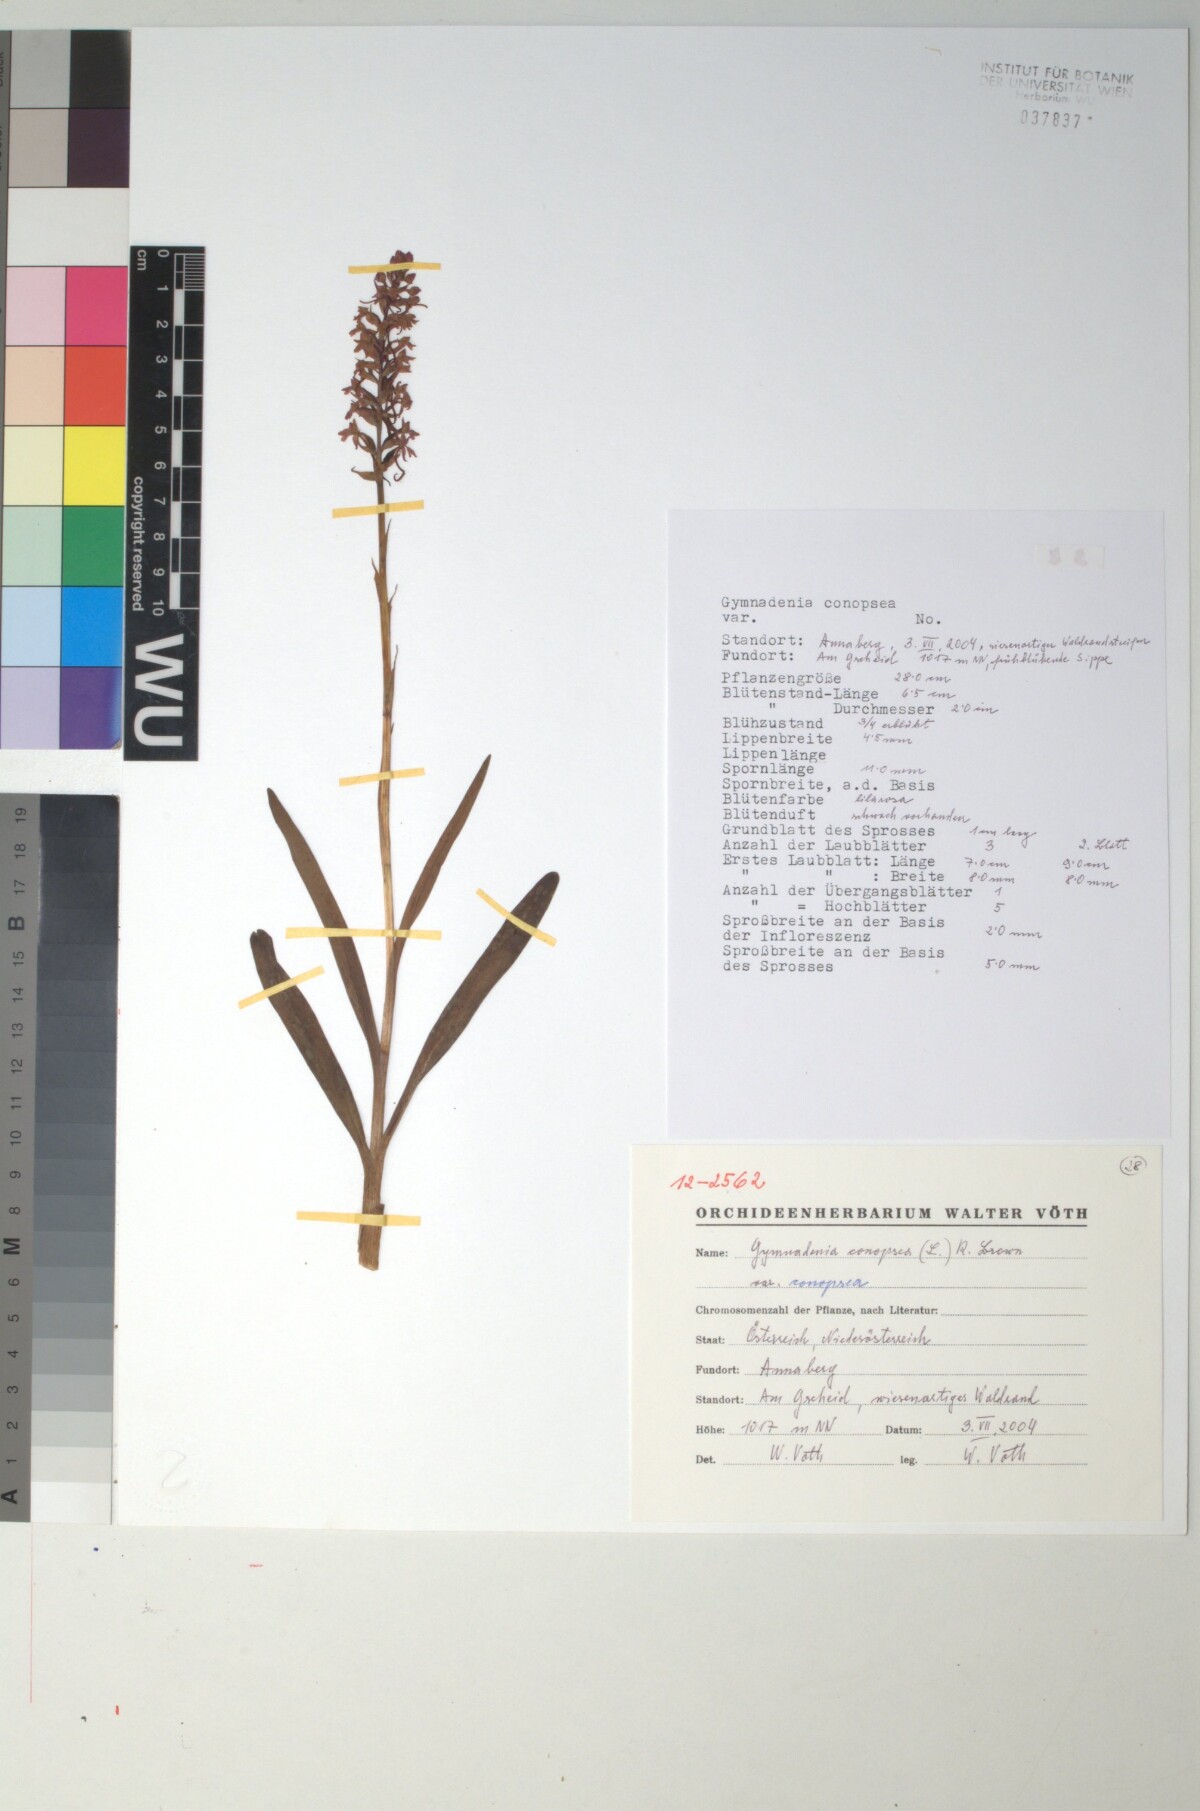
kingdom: Plantae
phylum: Tracheophyta
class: Liliopsida
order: Asparagales
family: Orchidaceae
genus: Gymnadenia
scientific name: Gymnadenia conopsea
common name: Fragrant orchid
